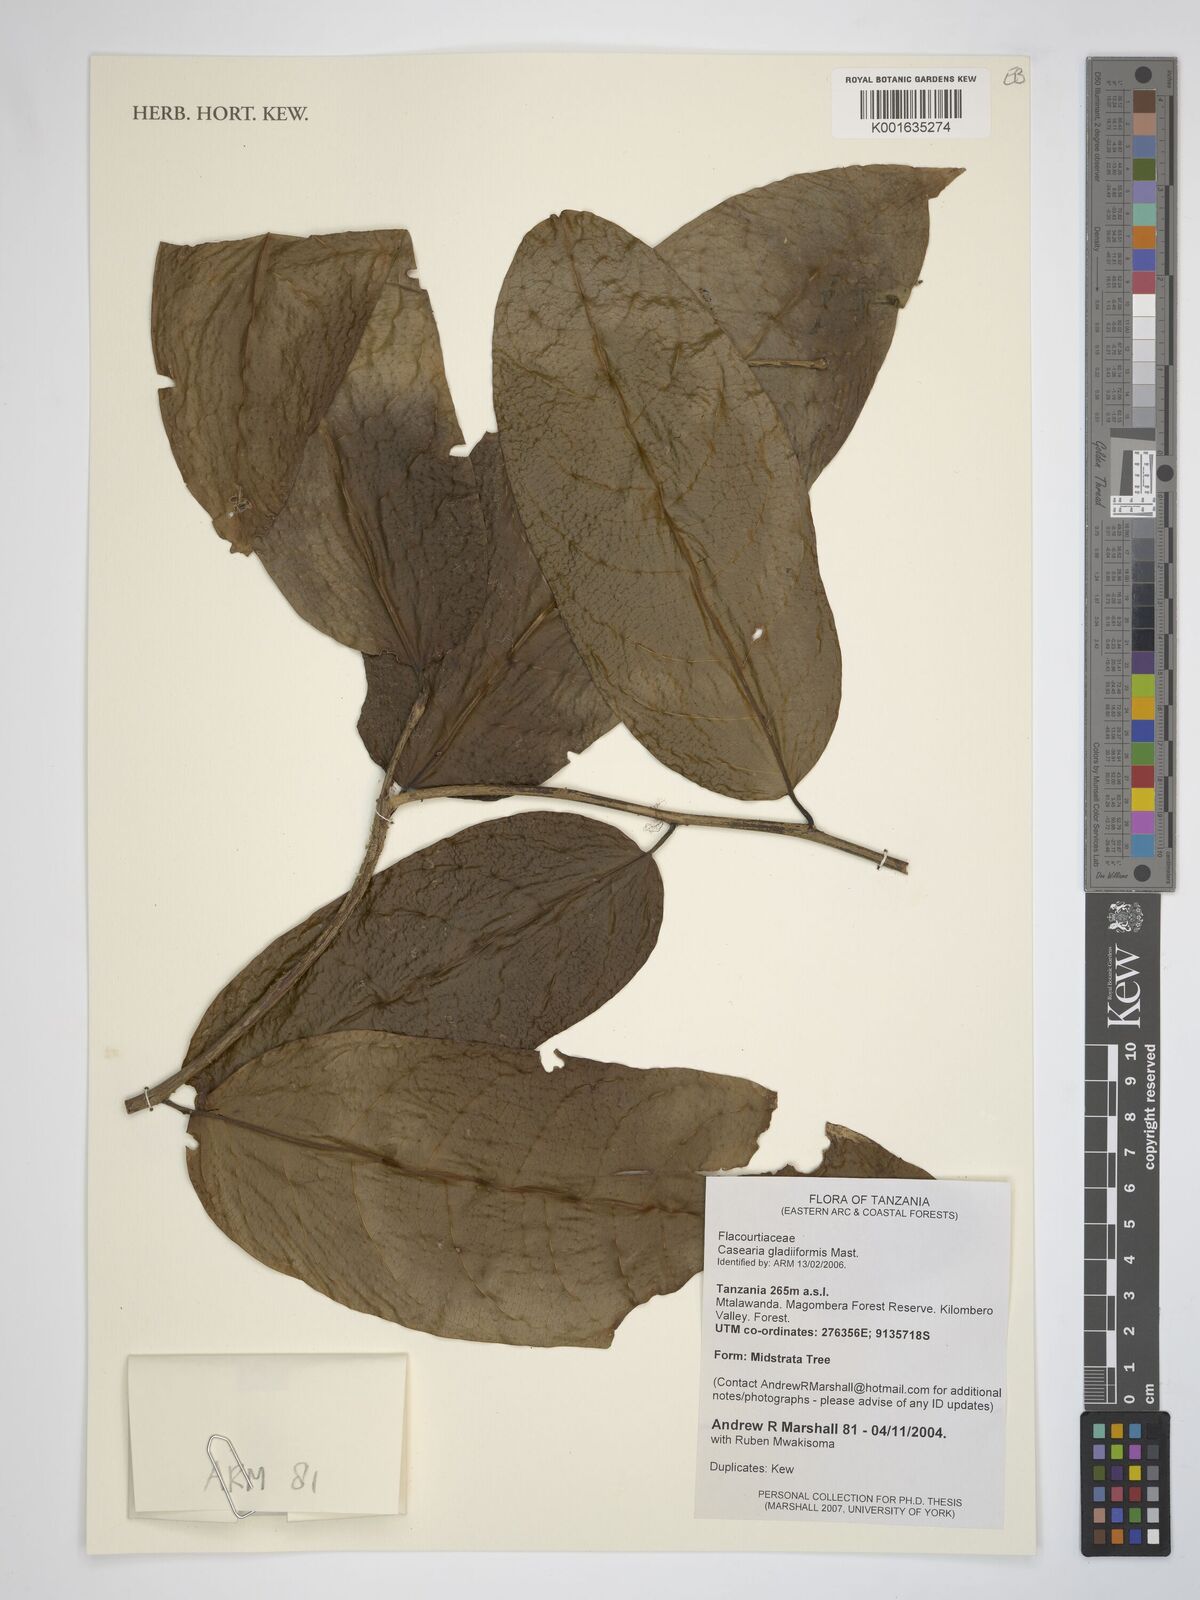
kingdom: Plantae
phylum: Tracheophyta
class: Magnoliopsida
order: Malpighiales
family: Salicaceae
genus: Casearia
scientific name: Casearia gladiiformis
